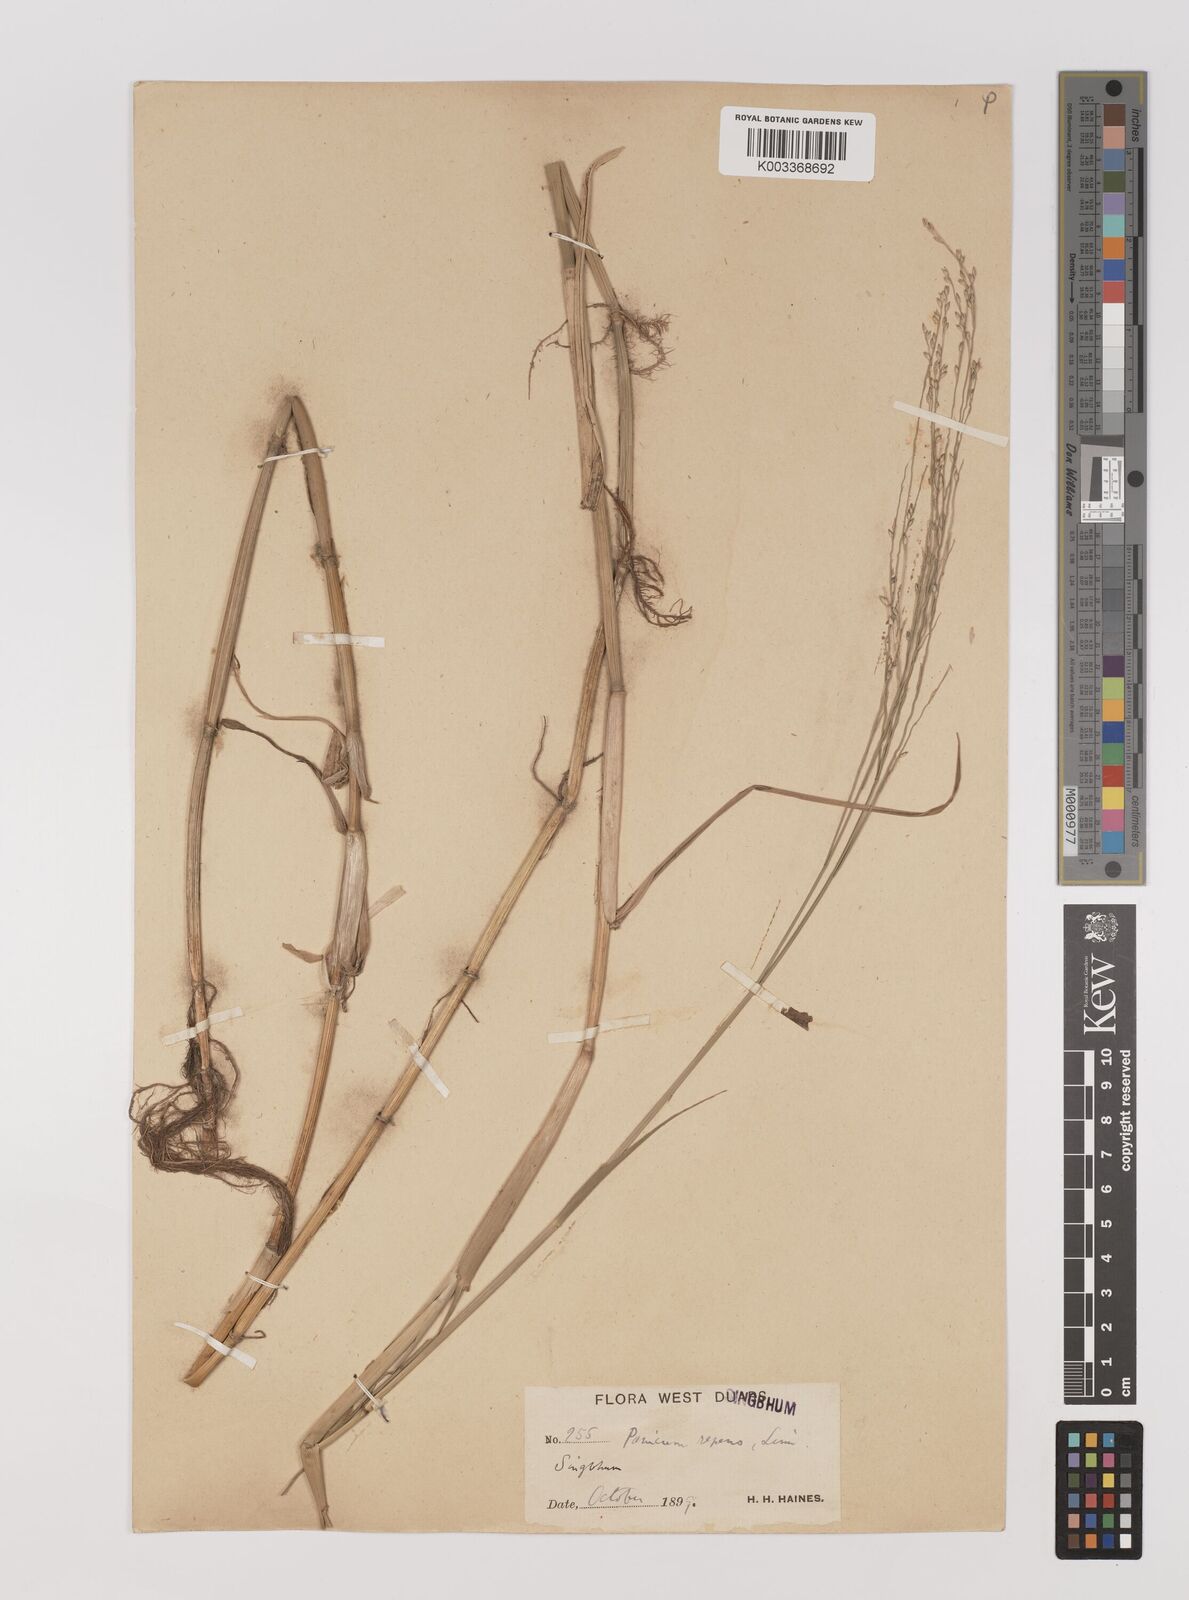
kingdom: Plantae
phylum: Tracheophyta
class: Liliopsida
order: Poales
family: Poaceae
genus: Panicum
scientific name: Panicum repens
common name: Torpedo grass
